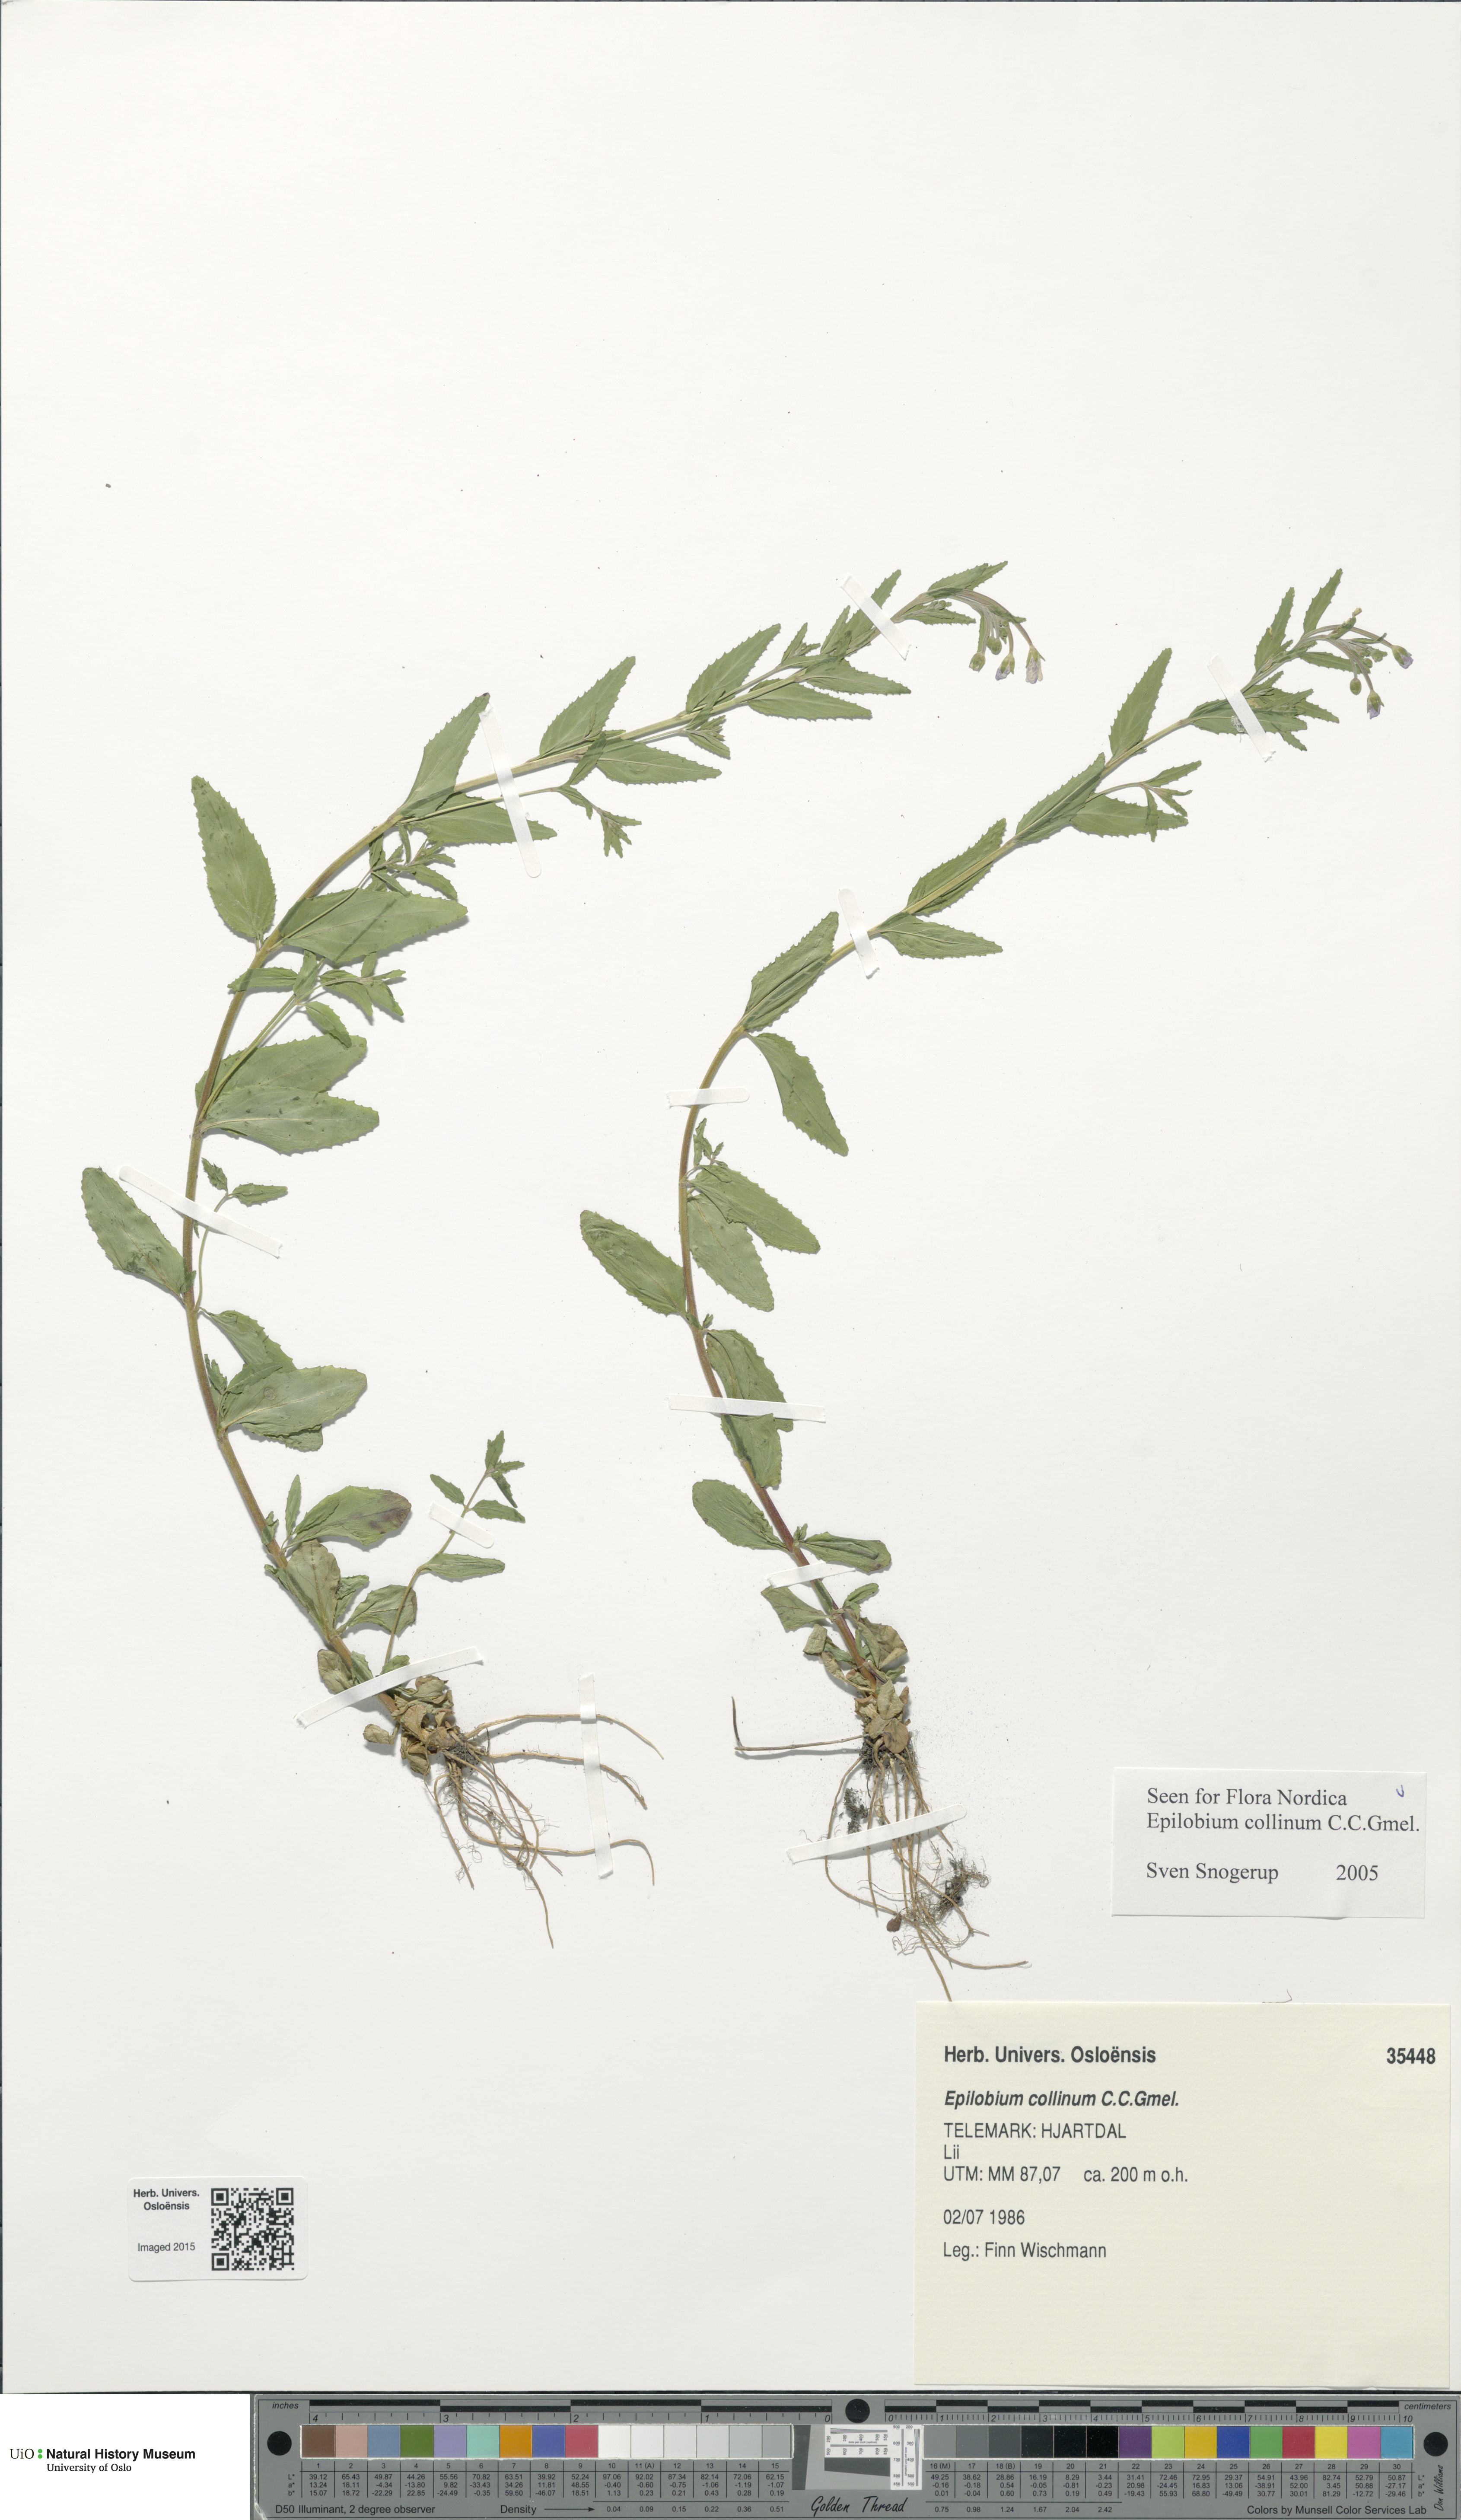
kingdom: Plantae
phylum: Tracheophyta
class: Magnoliopsida
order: Myrtales
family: Onagraceae
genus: Epilobium
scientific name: Epilobium collinum
